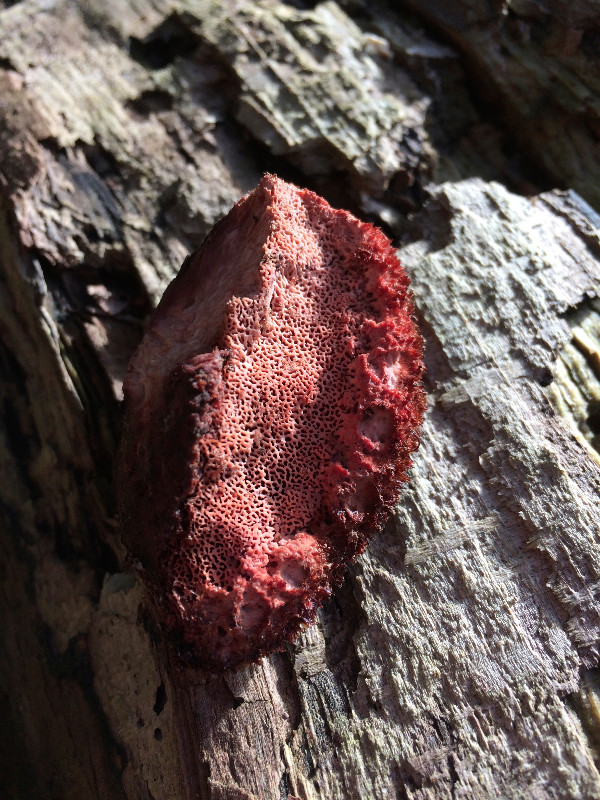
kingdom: Fungi
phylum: Basidiomycota
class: Agaricomycetes
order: Polyporales
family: Meruliaceae
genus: Pappia
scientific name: Pappia fissilis
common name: rosa fedtporesvamp
